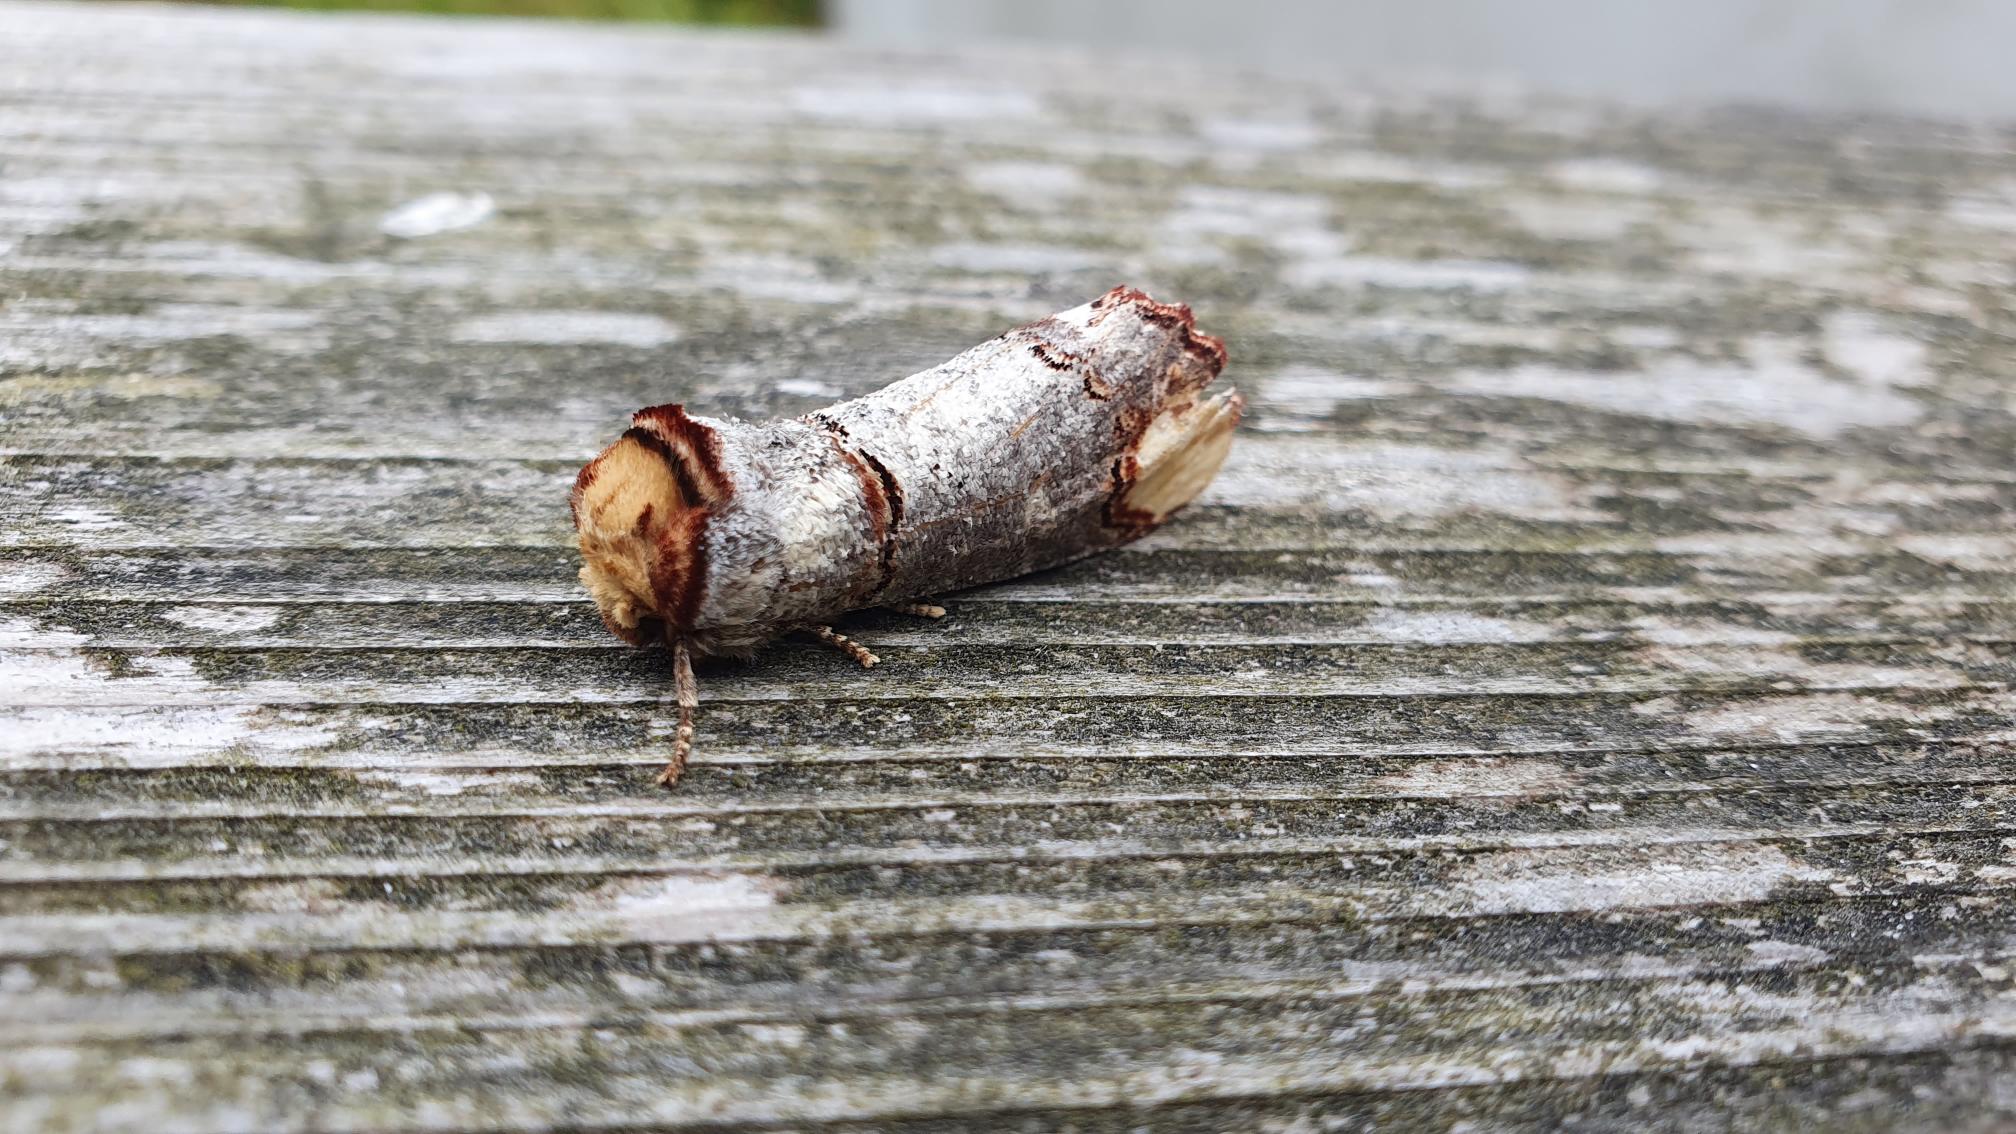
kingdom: Animalia
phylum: Arthropoda
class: Insecta
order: Lepidoptera
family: Notodontidae
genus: Phalera
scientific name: Phalera bucephala
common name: Måneplet
